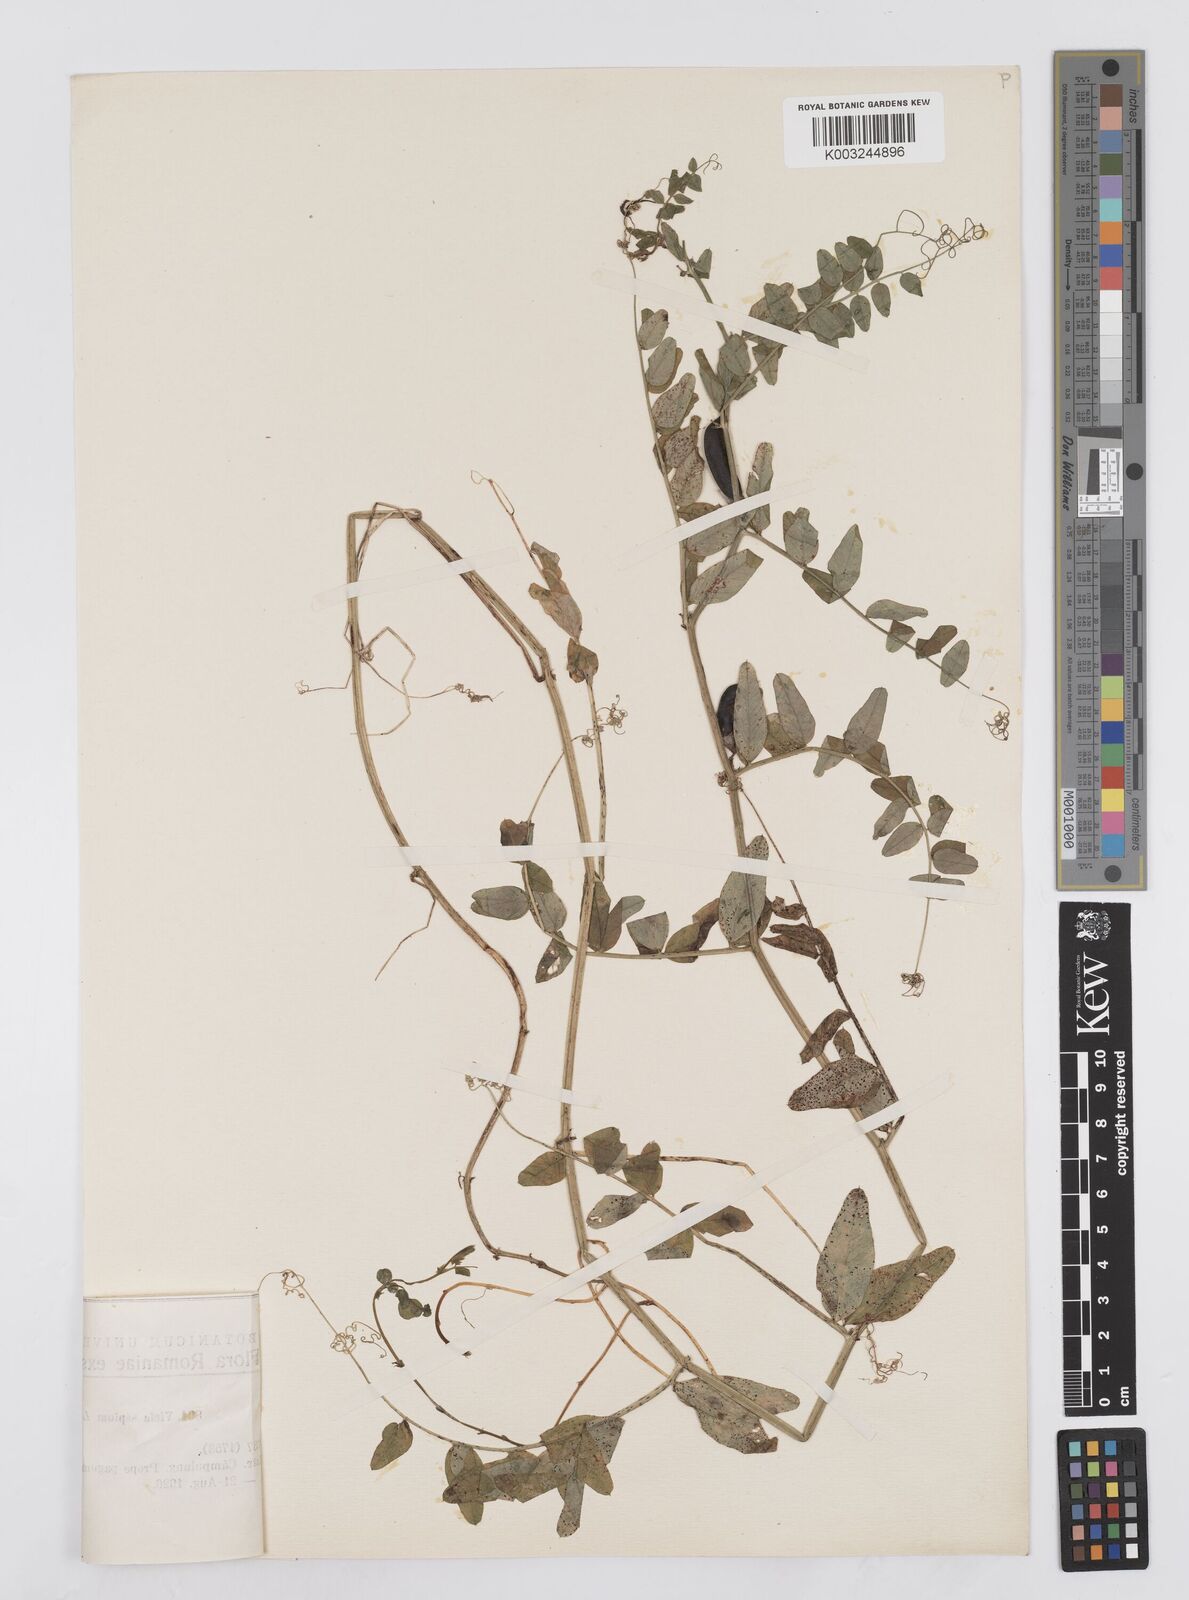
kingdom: Plantae
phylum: Tracheophyta
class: Magnoliopsida
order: Fabales
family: Fabaceae
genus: Vicia
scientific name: Vicia sepium
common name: Bush vetch
